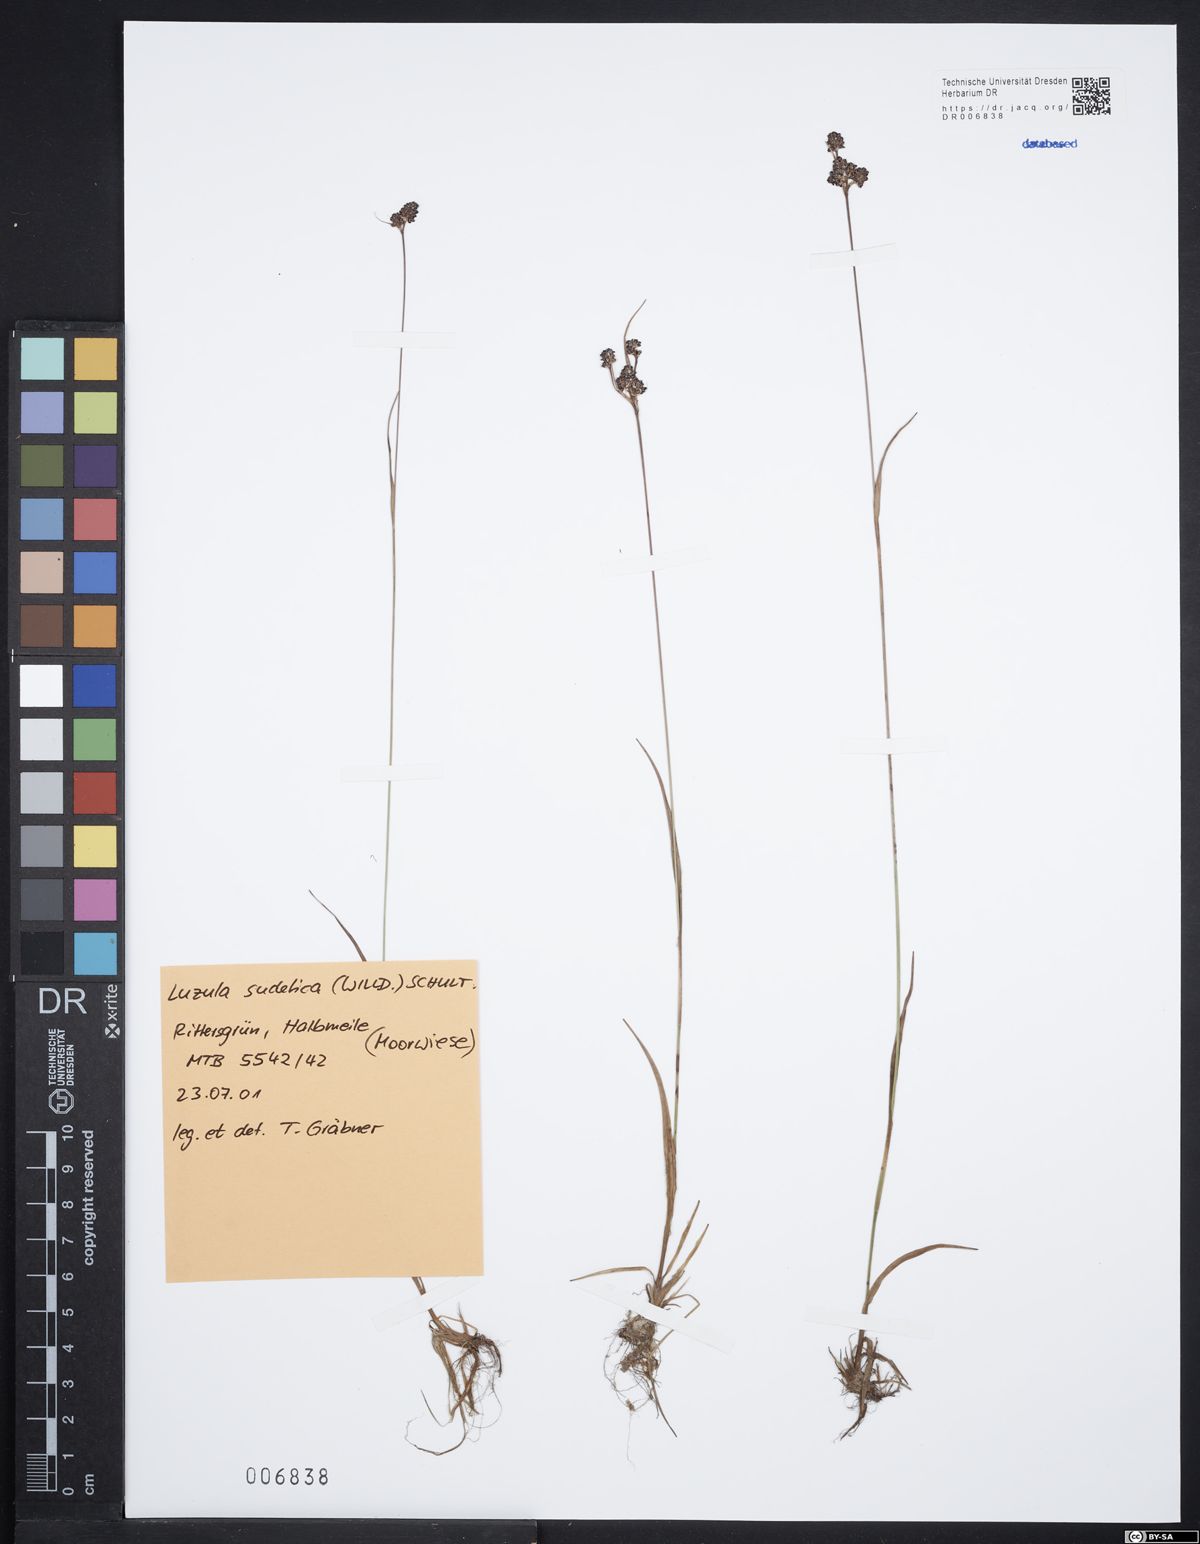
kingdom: Plantae
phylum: Tracheophyta
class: Liliopsida
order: Poales
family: Juncaceae
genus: Luzula
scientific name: Luzula sudetica
